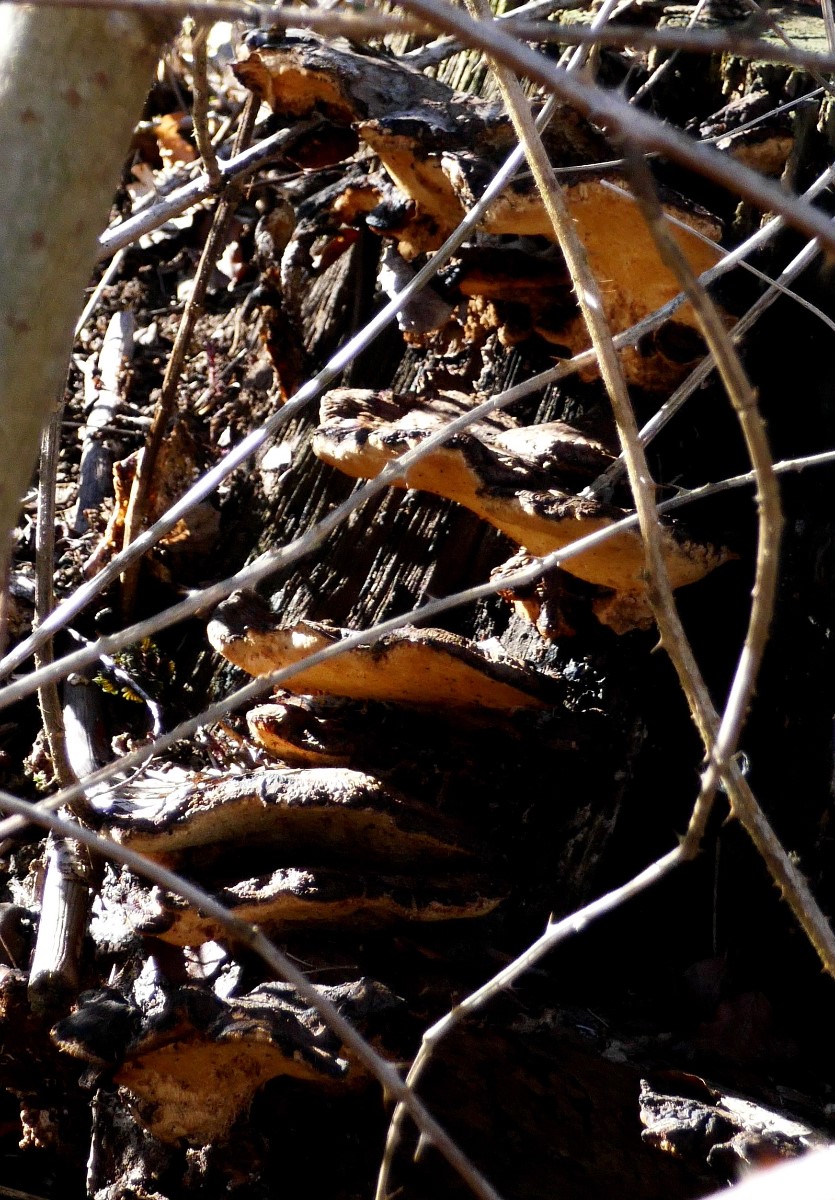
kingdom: Fungi
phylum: Basidiomycota
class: Agaricomycetes
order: Polyporales
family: Ischnodermataceae
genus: Ischnoderma
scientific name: Ischnoderma resinosum
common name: løv-tjæreporesvamp
